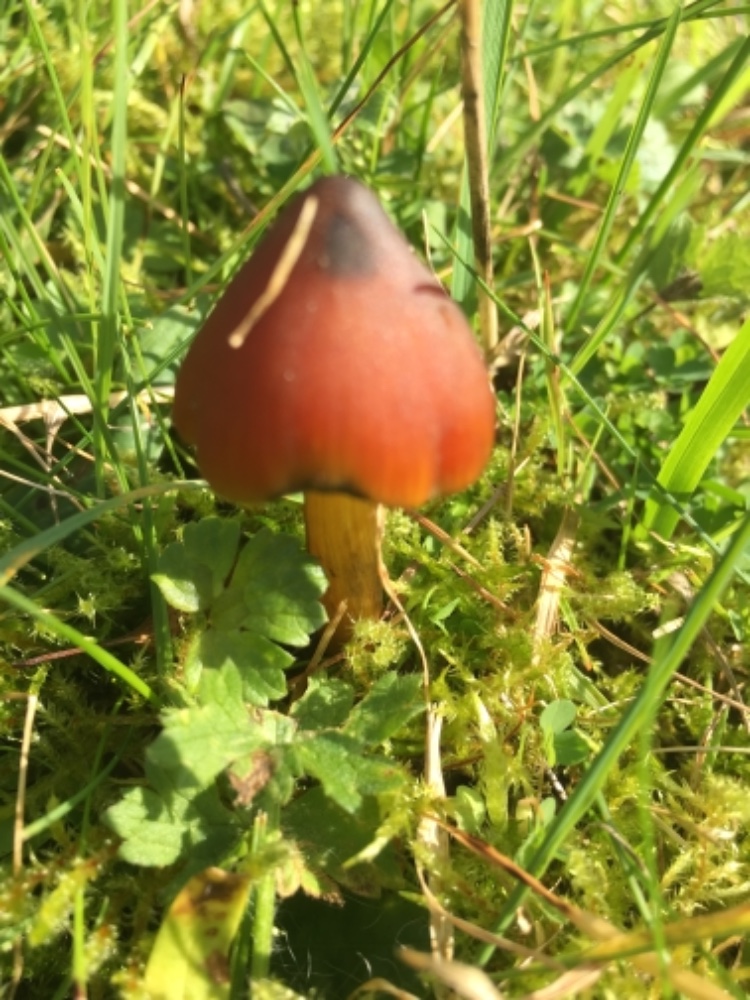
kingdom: Fungi
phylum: Basidiomycota
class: Agaricomycetes
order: Agaricales
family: Hygrophoraceae
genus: Hygrocybe
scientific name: Hygrocybe conica
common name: kegle-vokshat
